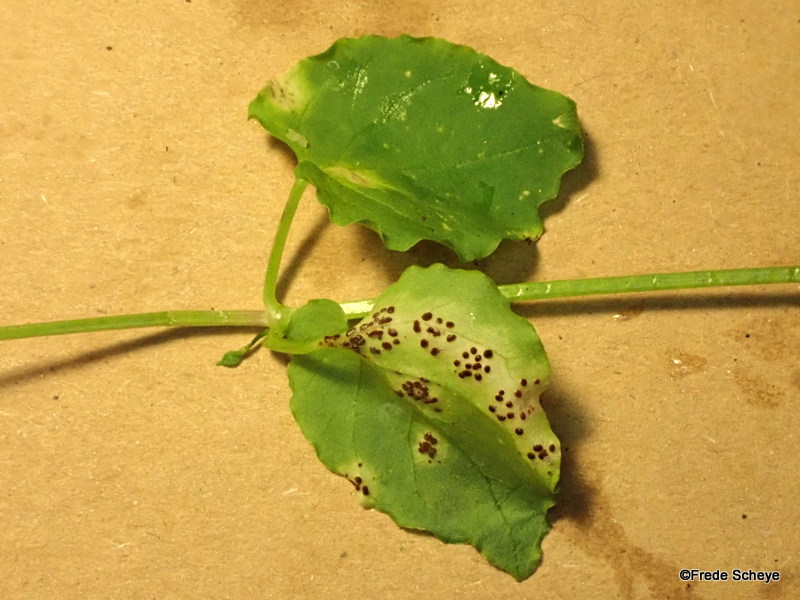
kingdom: Fungi
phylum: Basidiomycota
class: Pucciniomycetes
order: Pucciniales
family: Pucciniaceae
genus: Puccinia
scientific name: Puccinia arenariae
